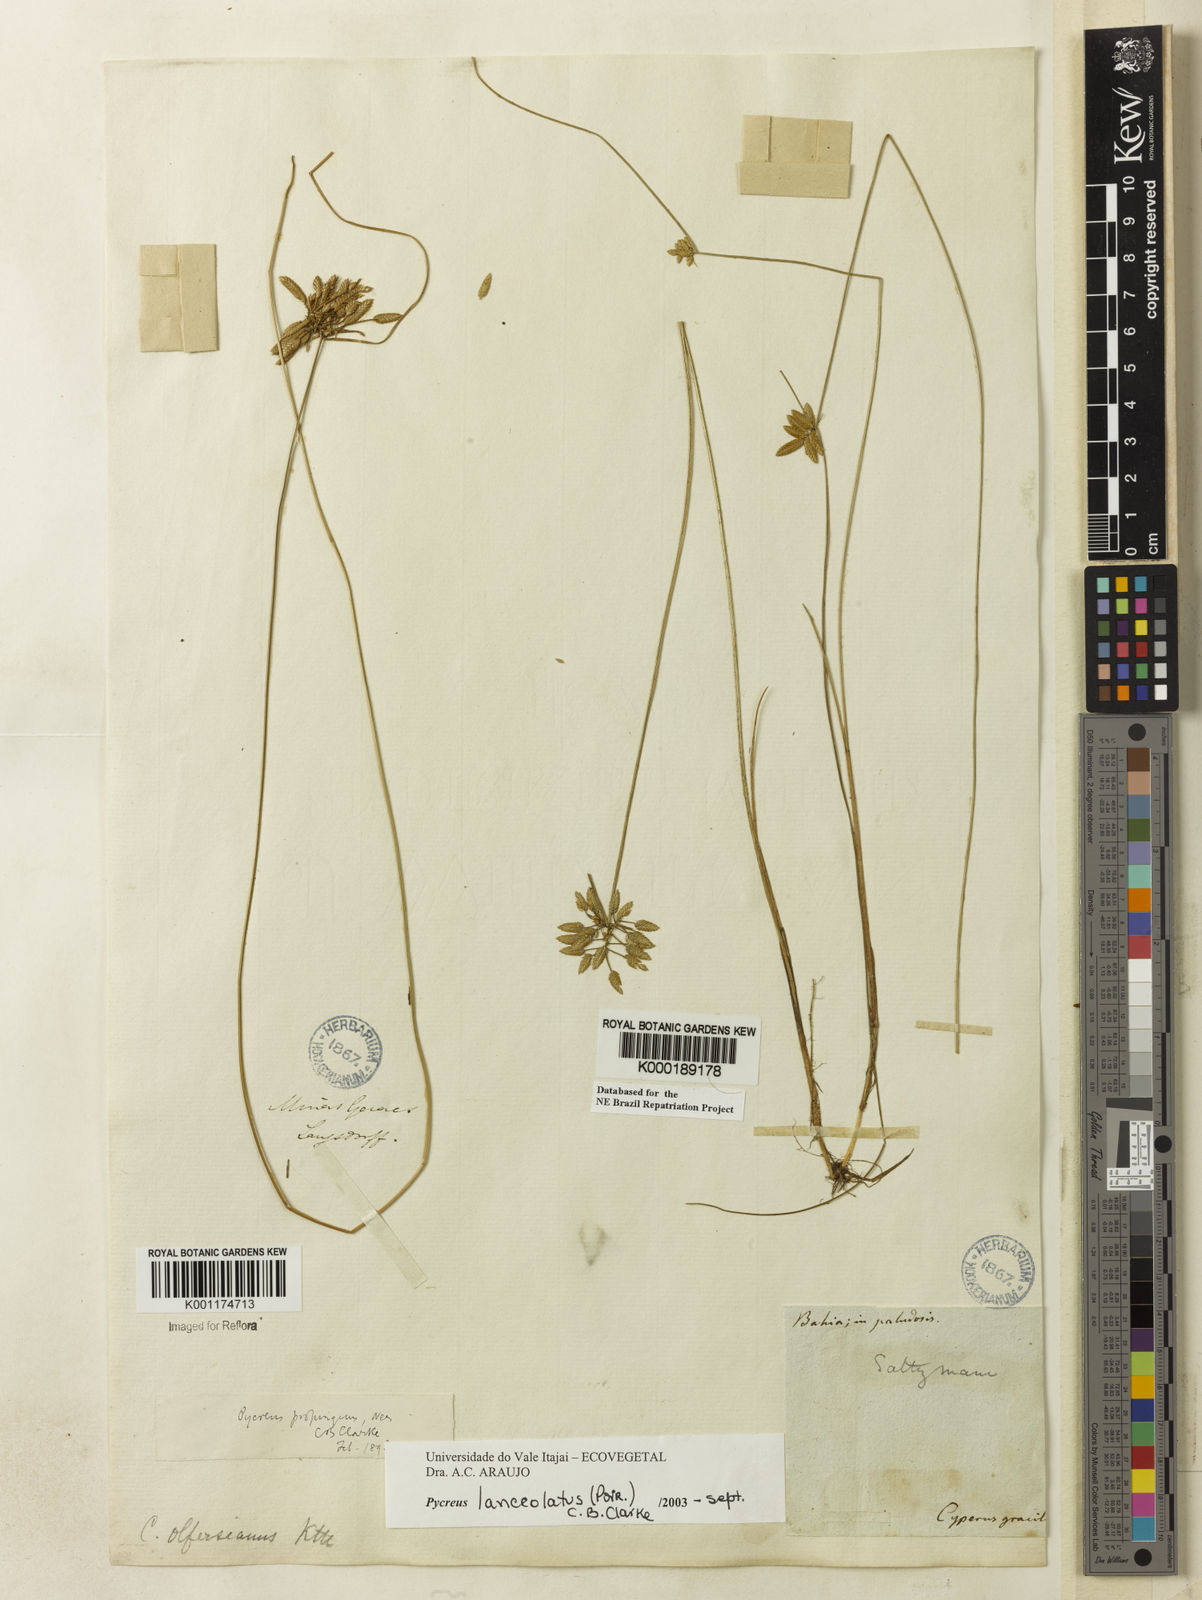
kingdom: Plantae
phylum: Tracheophyta
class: Liliopsida
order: Poales
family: Cyperaceae
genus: Cyperus
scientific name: Cyperus lanceolatus
